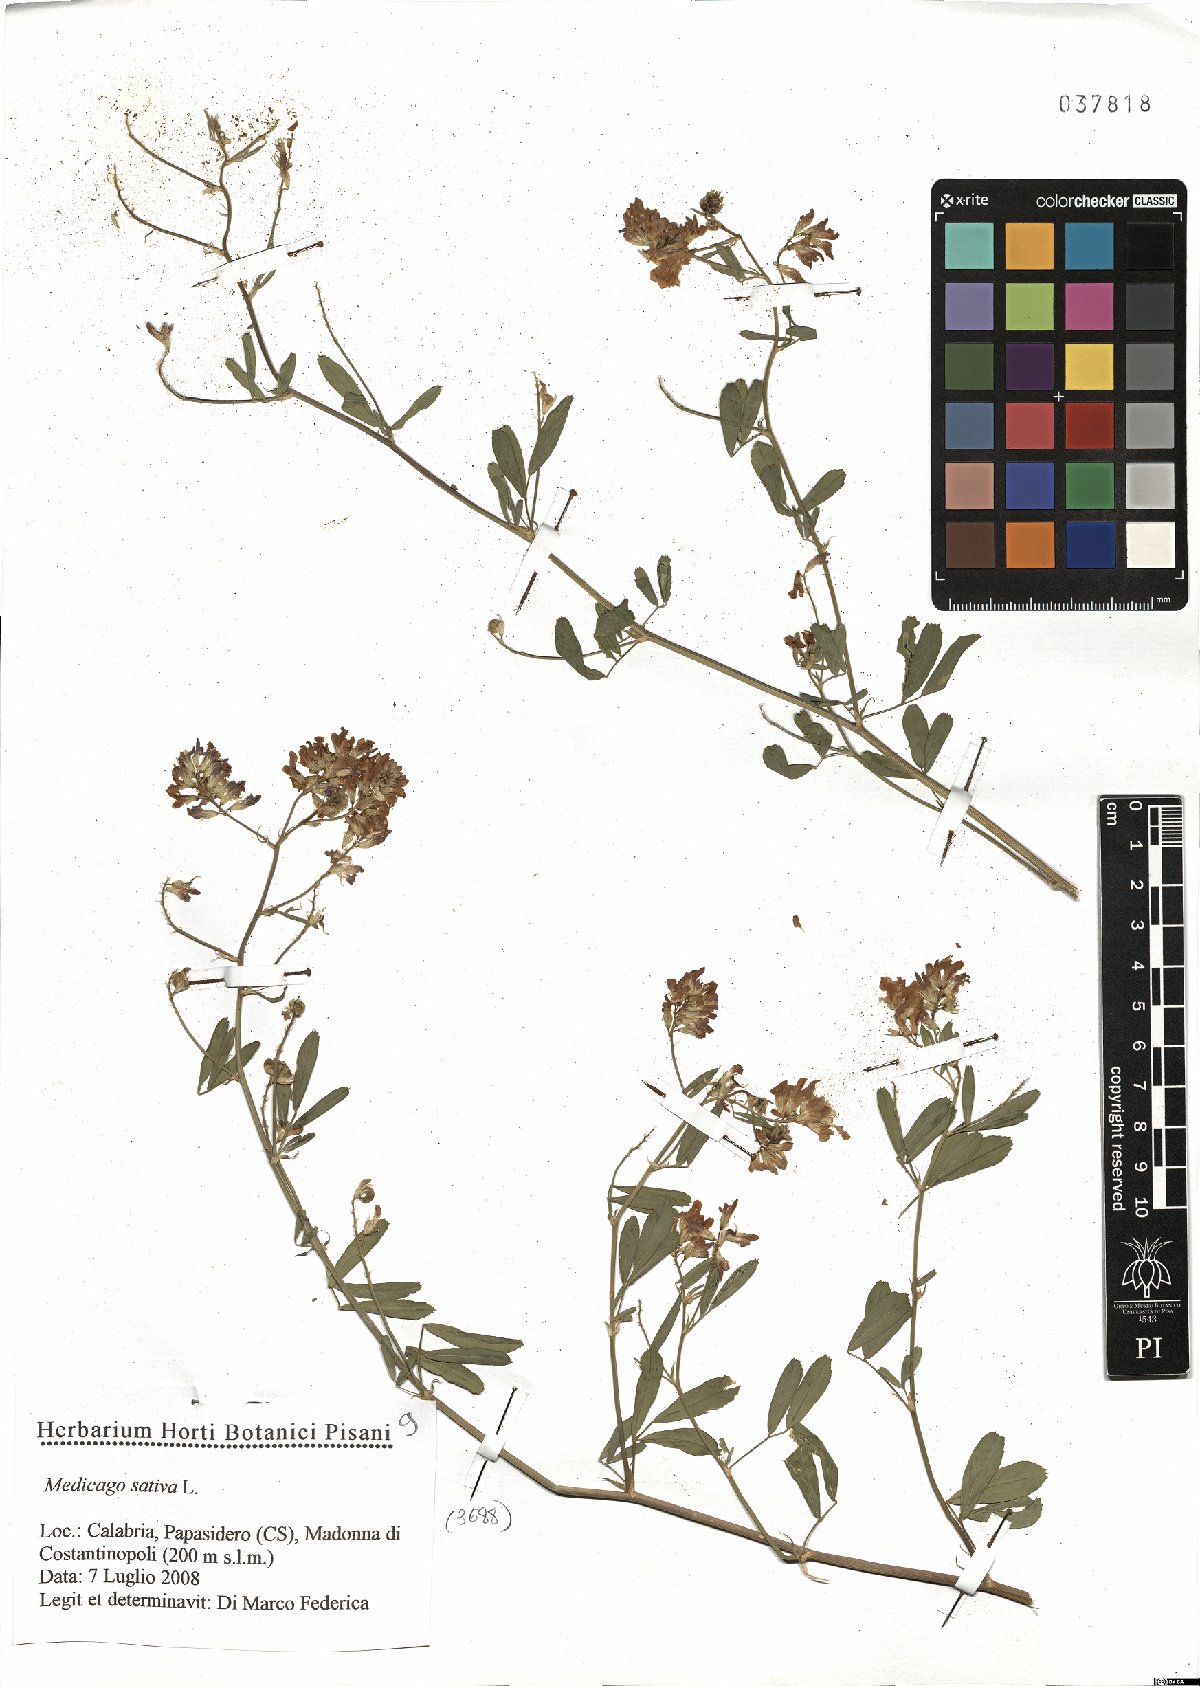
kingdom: Plantae
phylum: Tracheophyta
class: Magnoliopsida
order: Fabales
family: Fabaceae
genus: Medicago
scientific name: Medicago sativa
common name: Alfalfa
